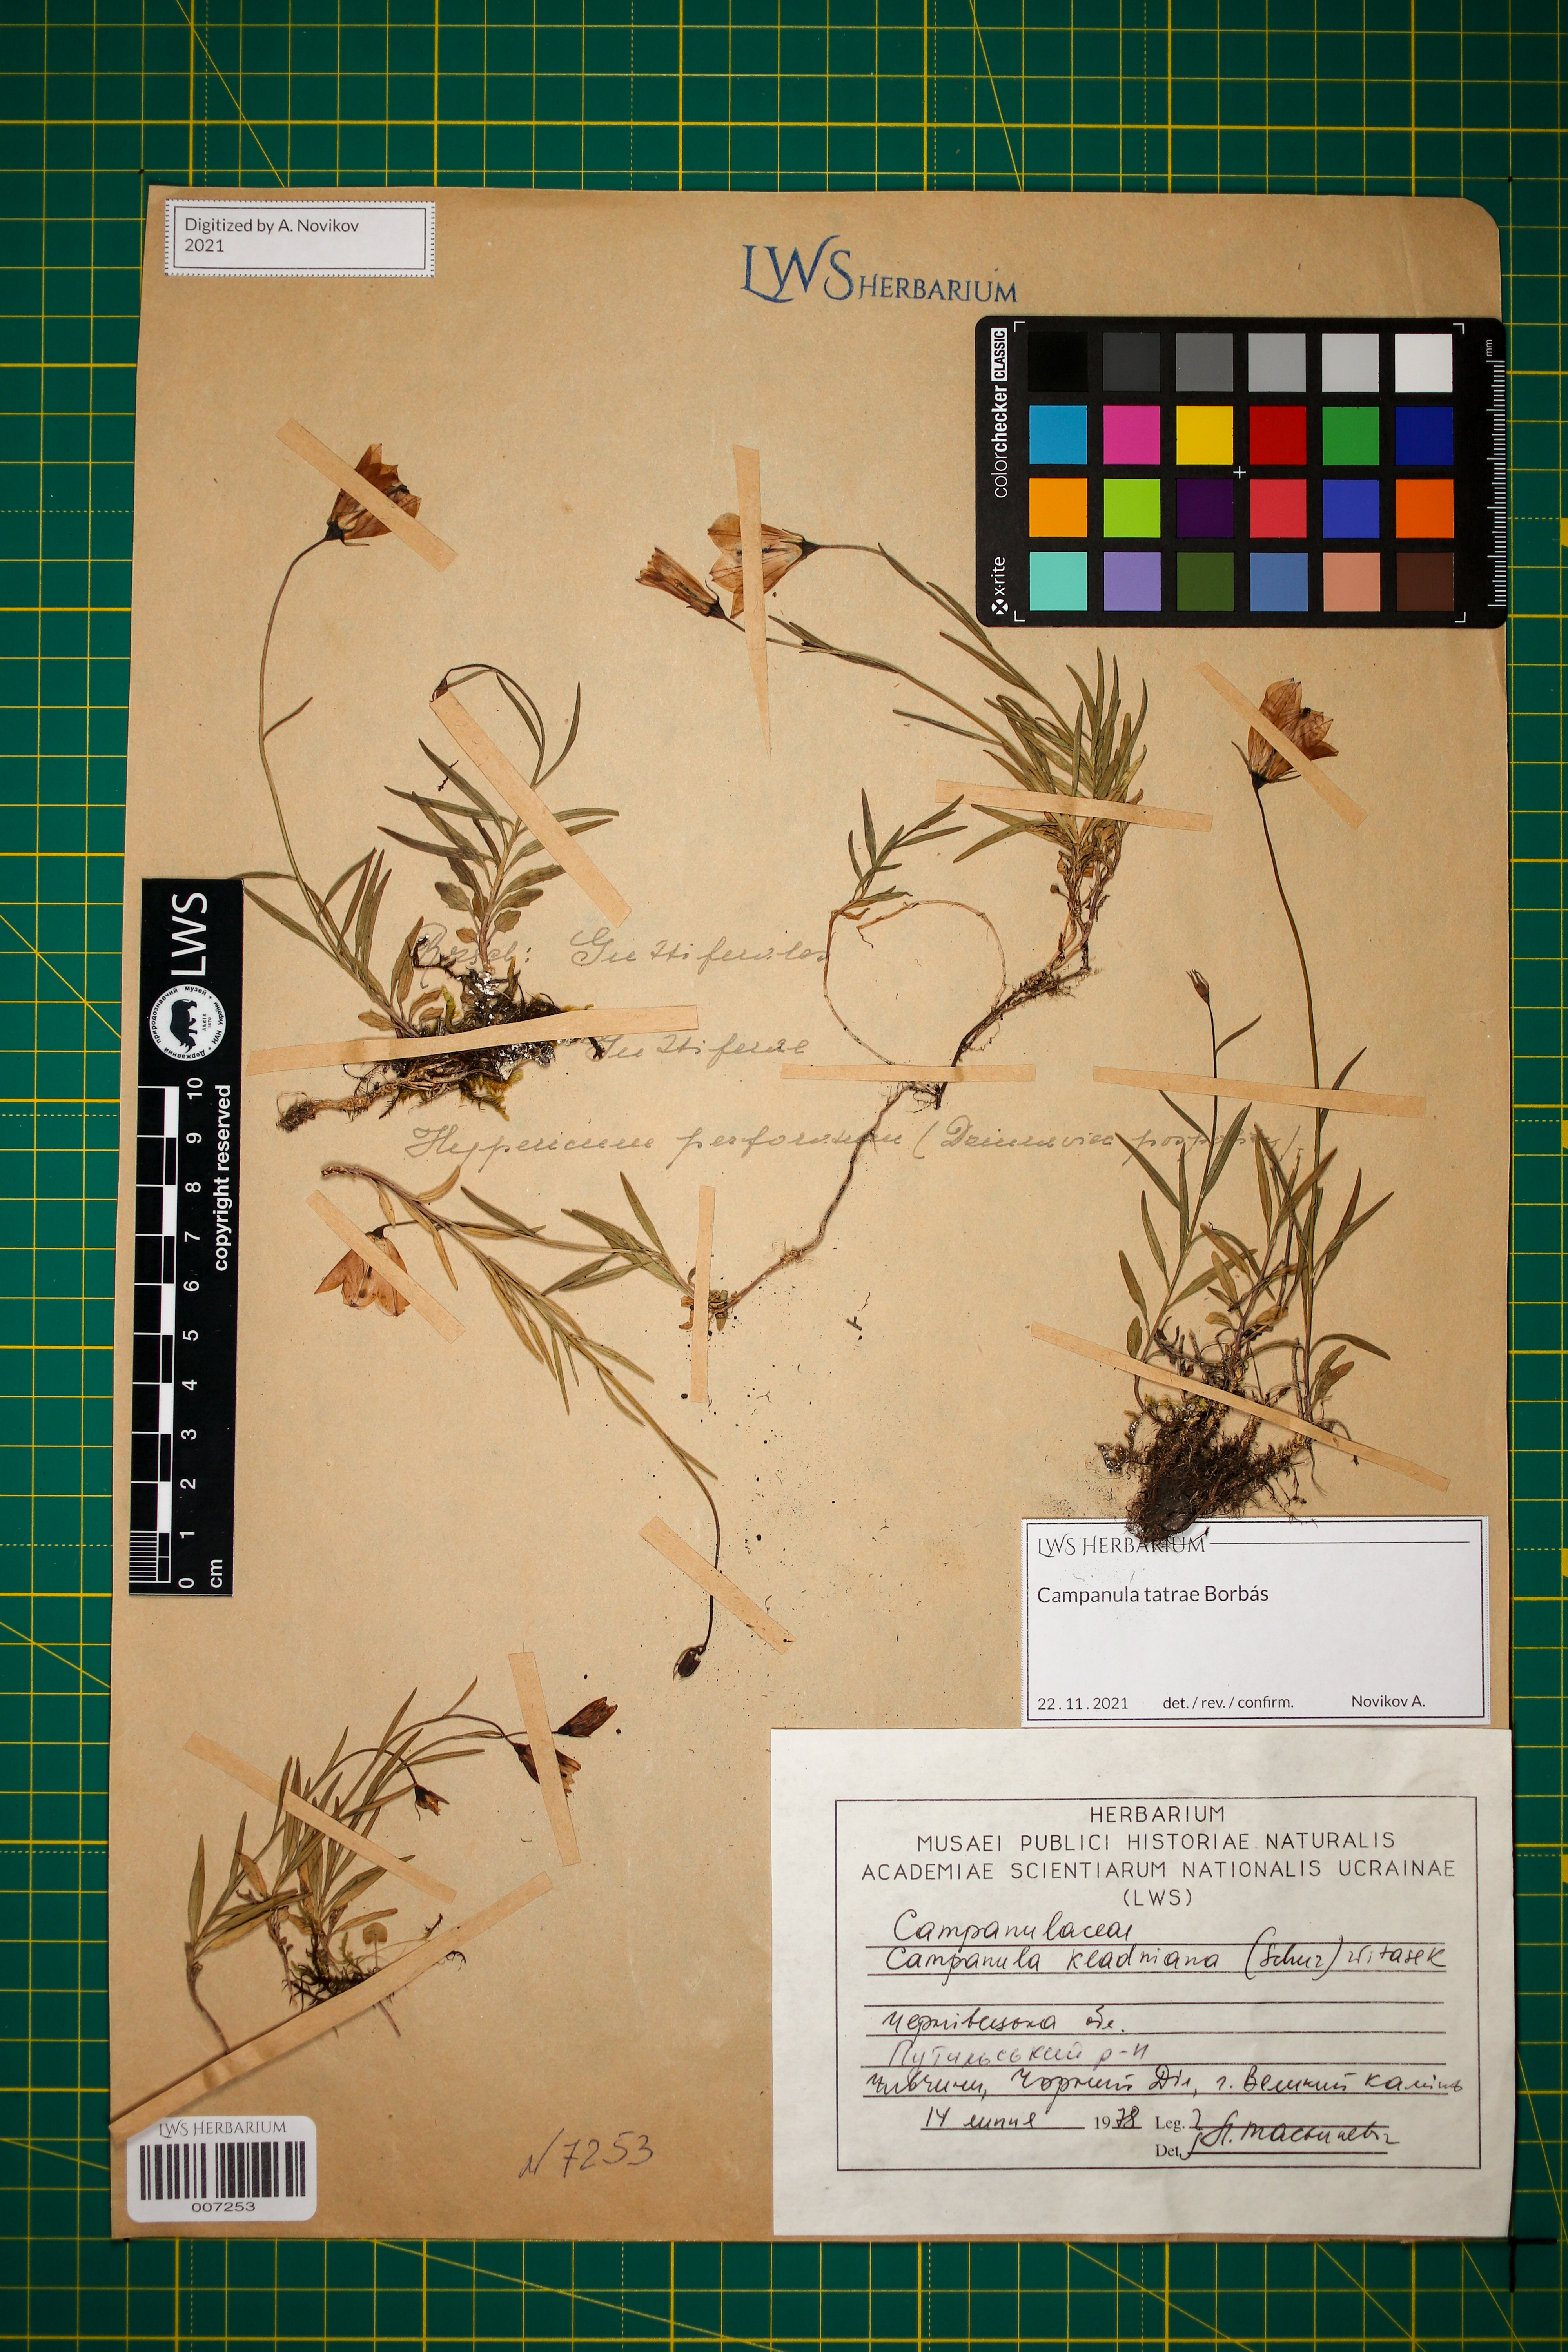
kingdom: Plantae
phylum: Tracheophyta
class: Magnoliopsida
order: Asterales
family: Campanulaceae
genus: Campanula
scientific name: Campanula kladniana
